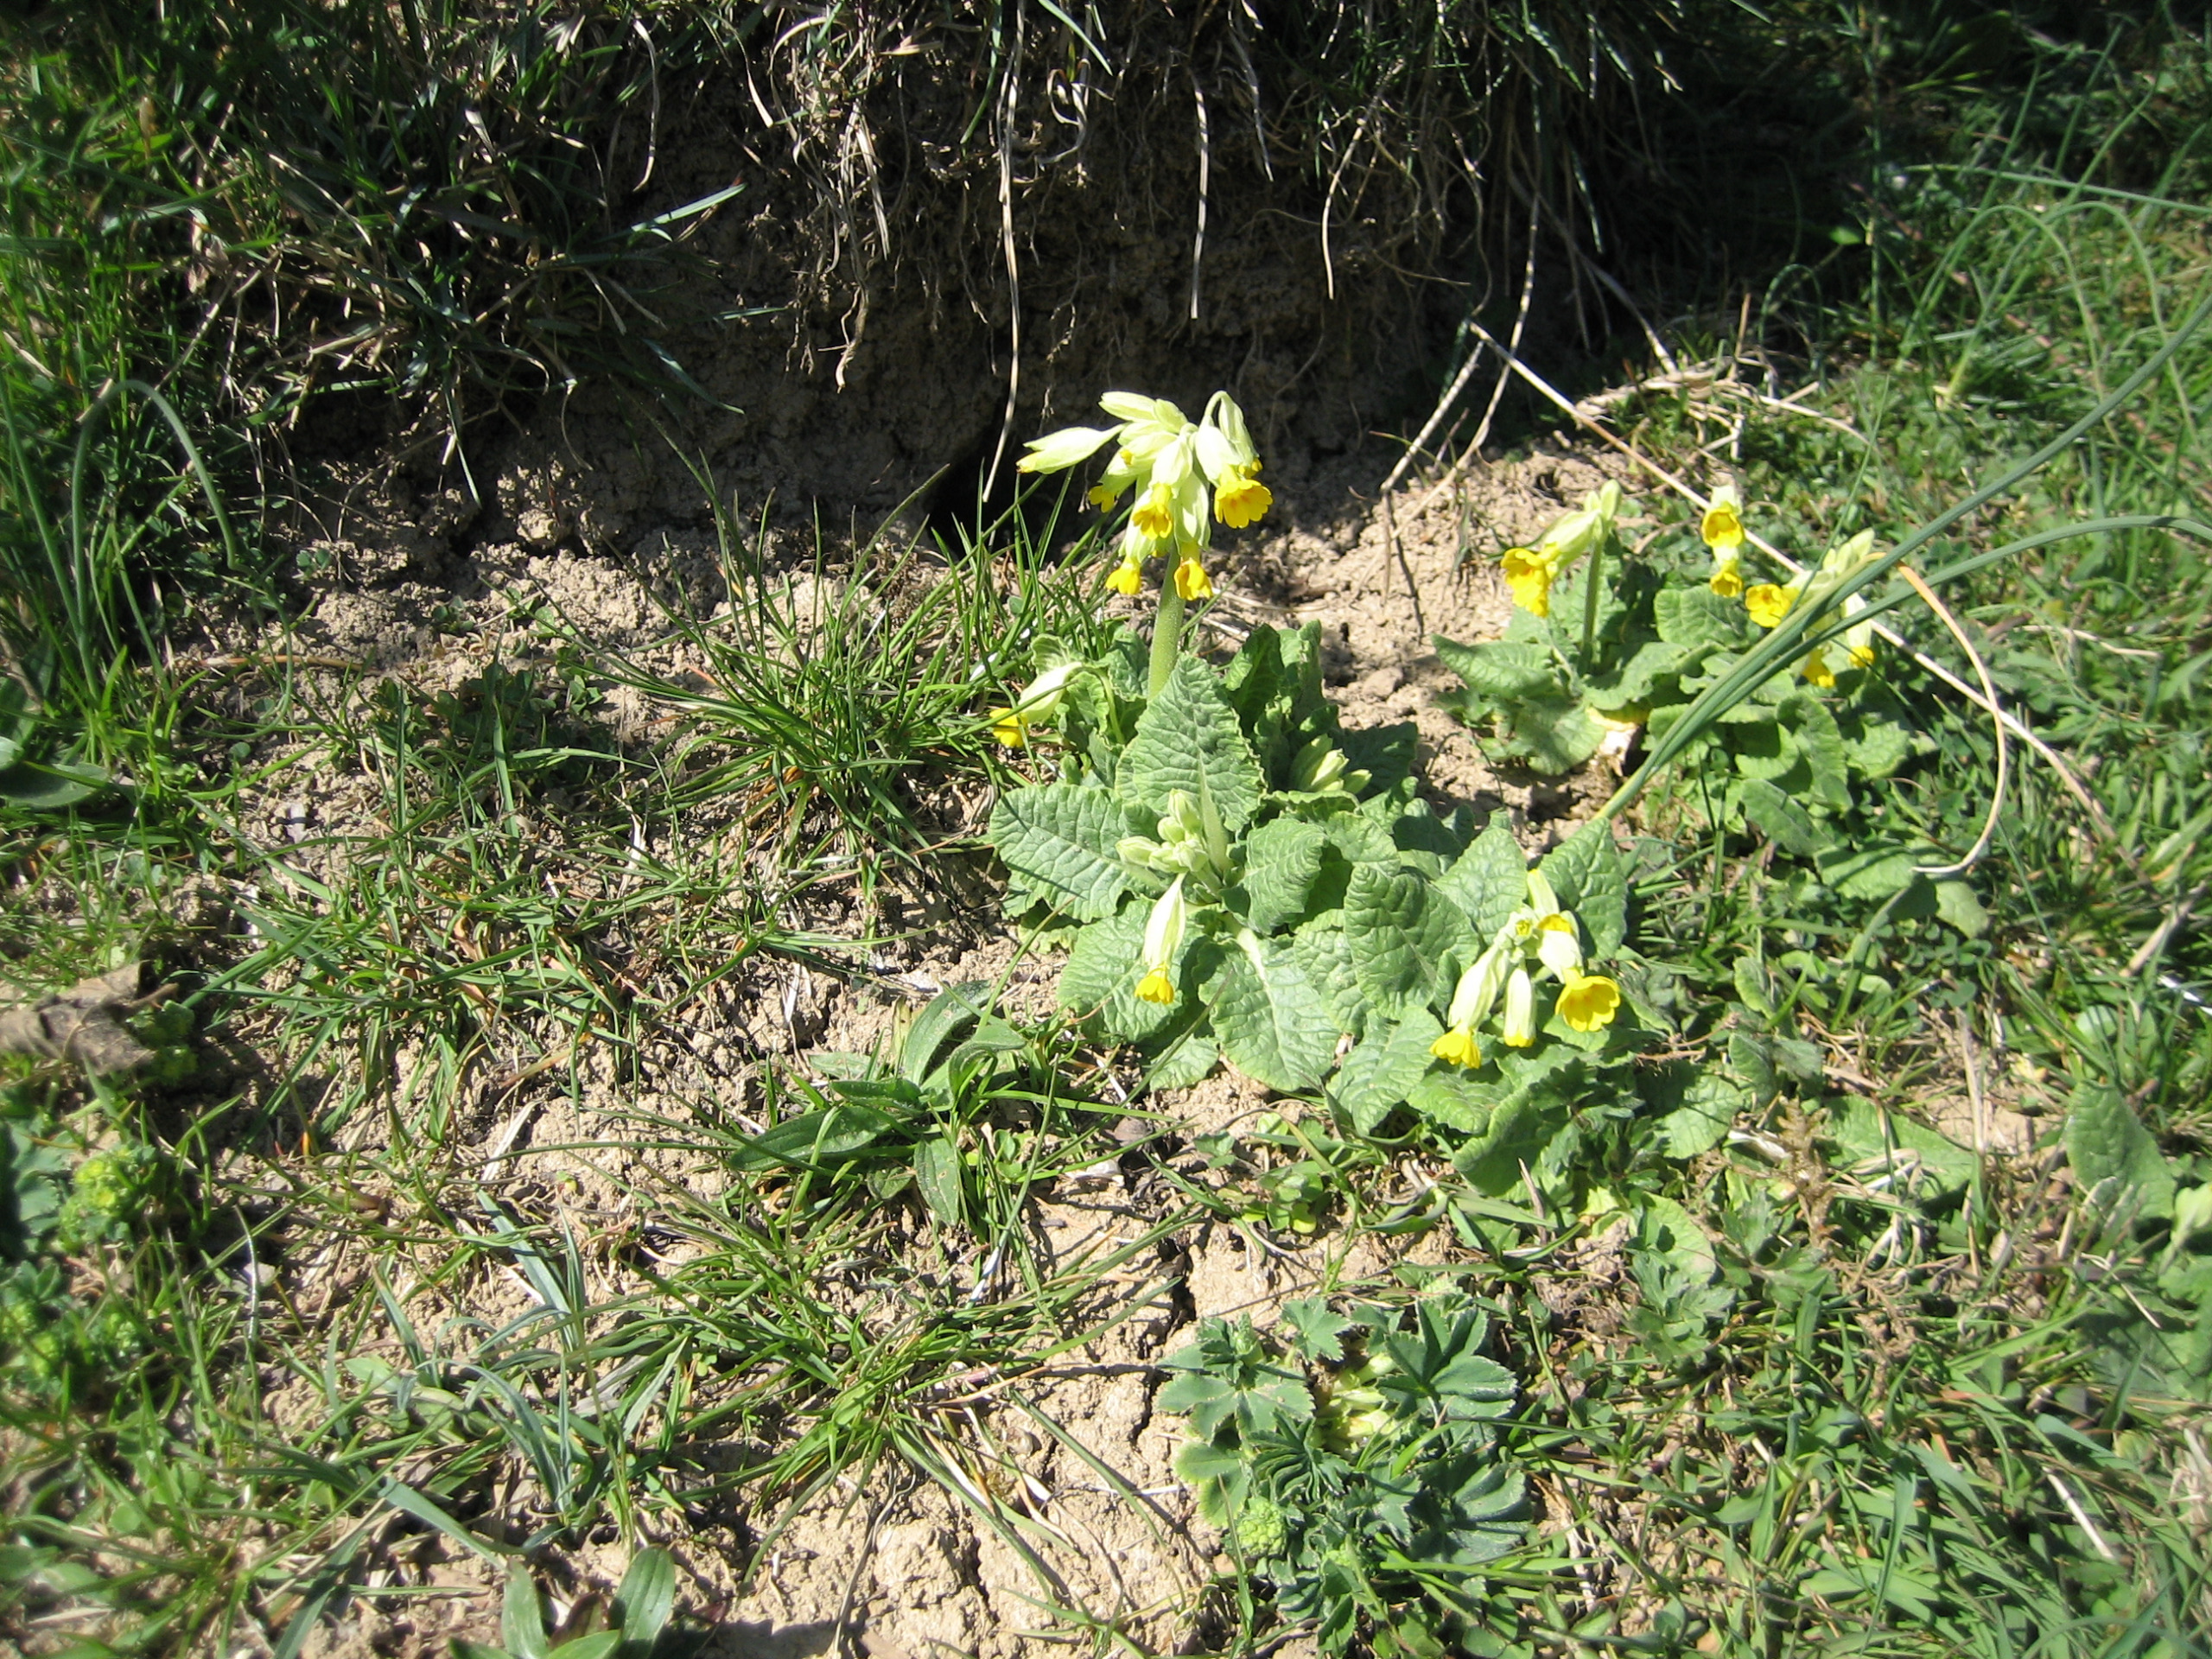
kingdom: Plantae
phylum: Tracheophyta
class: Magnoliopsida
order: Ericales
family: Primulaceae
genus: Primula
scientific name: Primula veris
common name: Hulkravet kodriver
